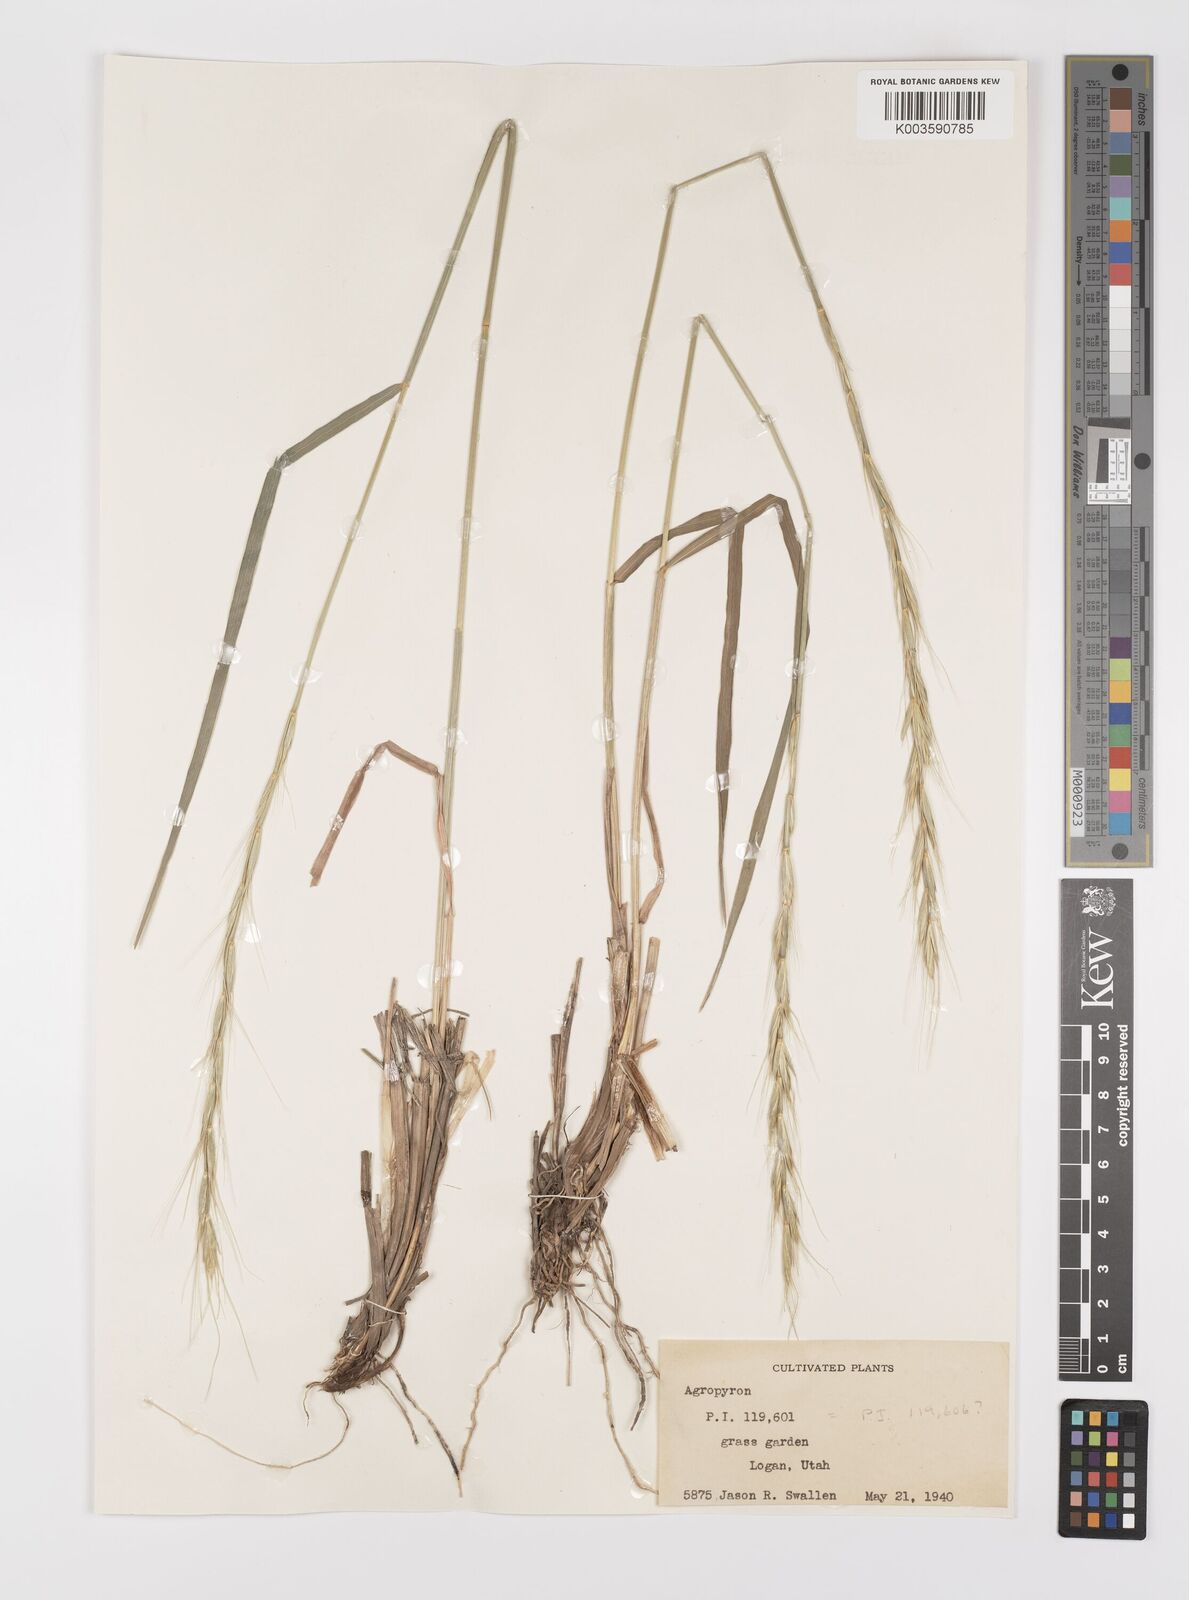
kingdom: Plantae
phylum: Tracheophyta
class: Liliopsida
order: Poales
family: Poaceae
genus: Elymus
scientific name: Elymus
